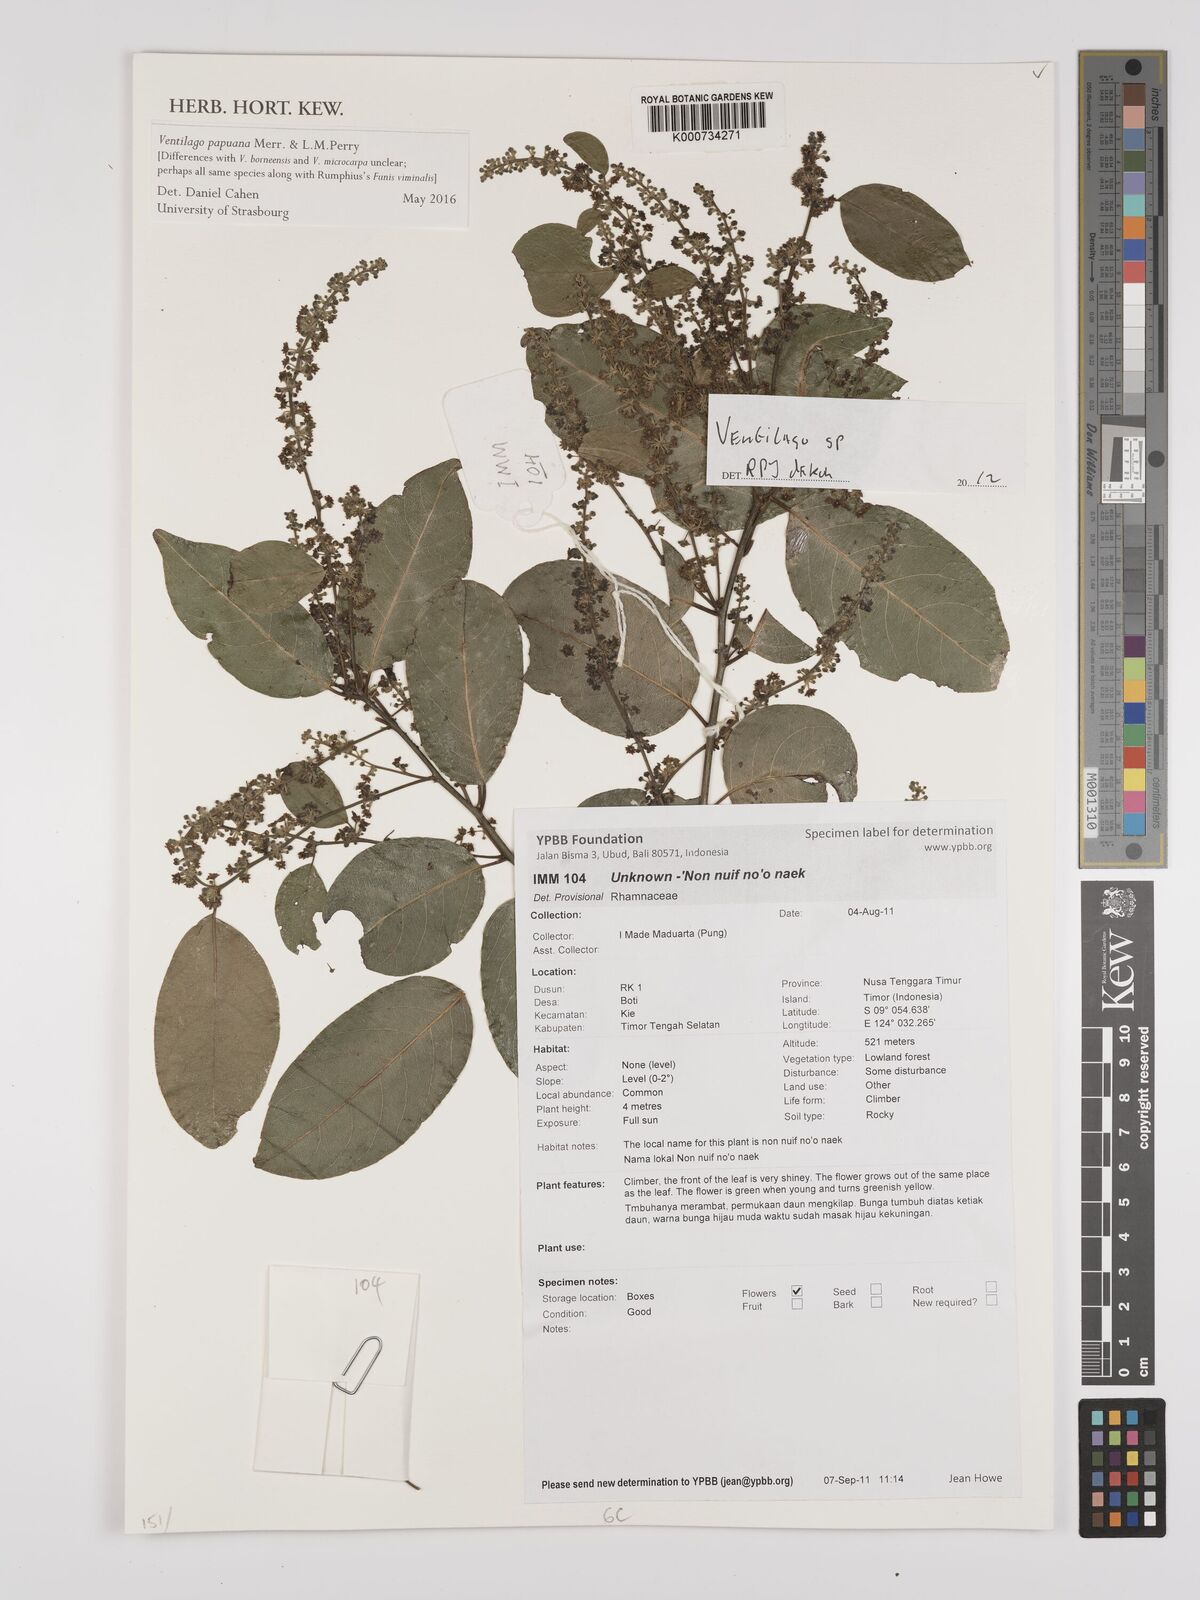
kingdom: Plantae
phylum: Tracheophyta
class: Magnoliopsida
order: Rosales
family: Rhamnaceae
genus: Ventilago
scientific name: Ventilago
